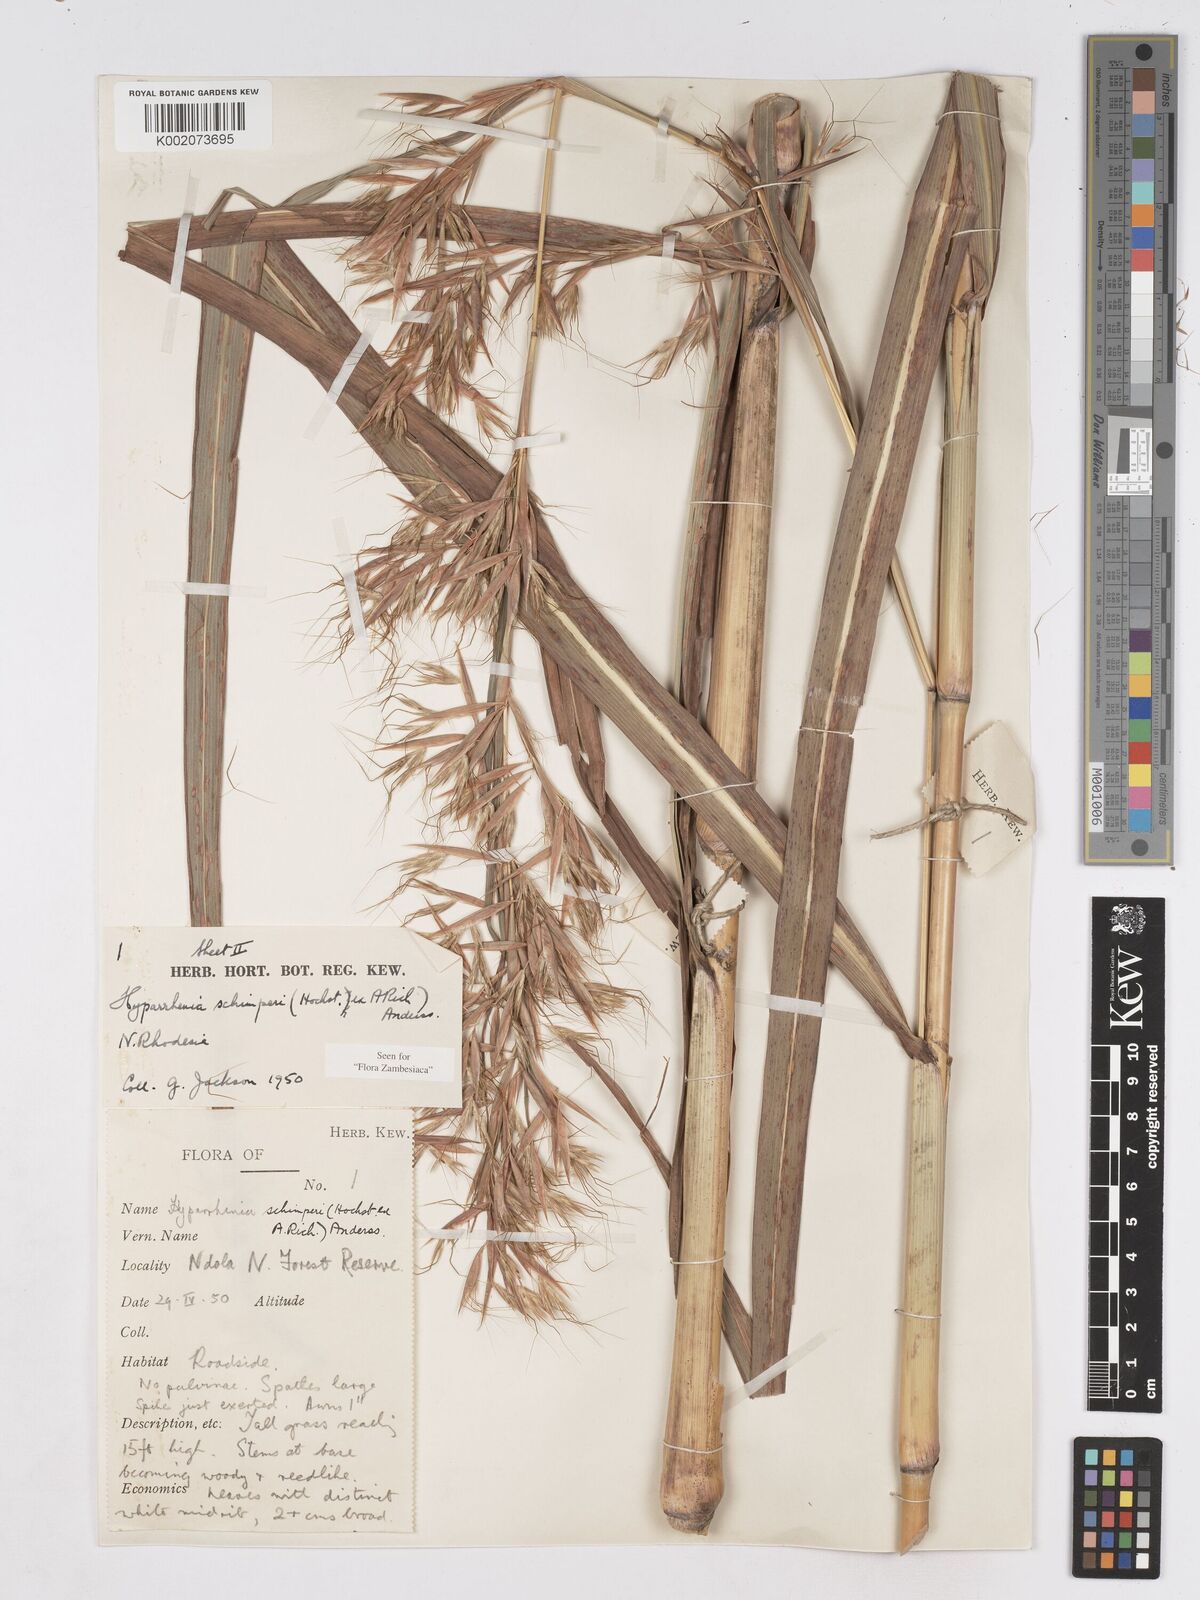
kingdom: Plantae
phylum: Tracheophyta
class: Liliopsida
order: Poales
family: Poaceae
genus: Hyparrhenia
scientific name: Hyparrhenia schimperi
